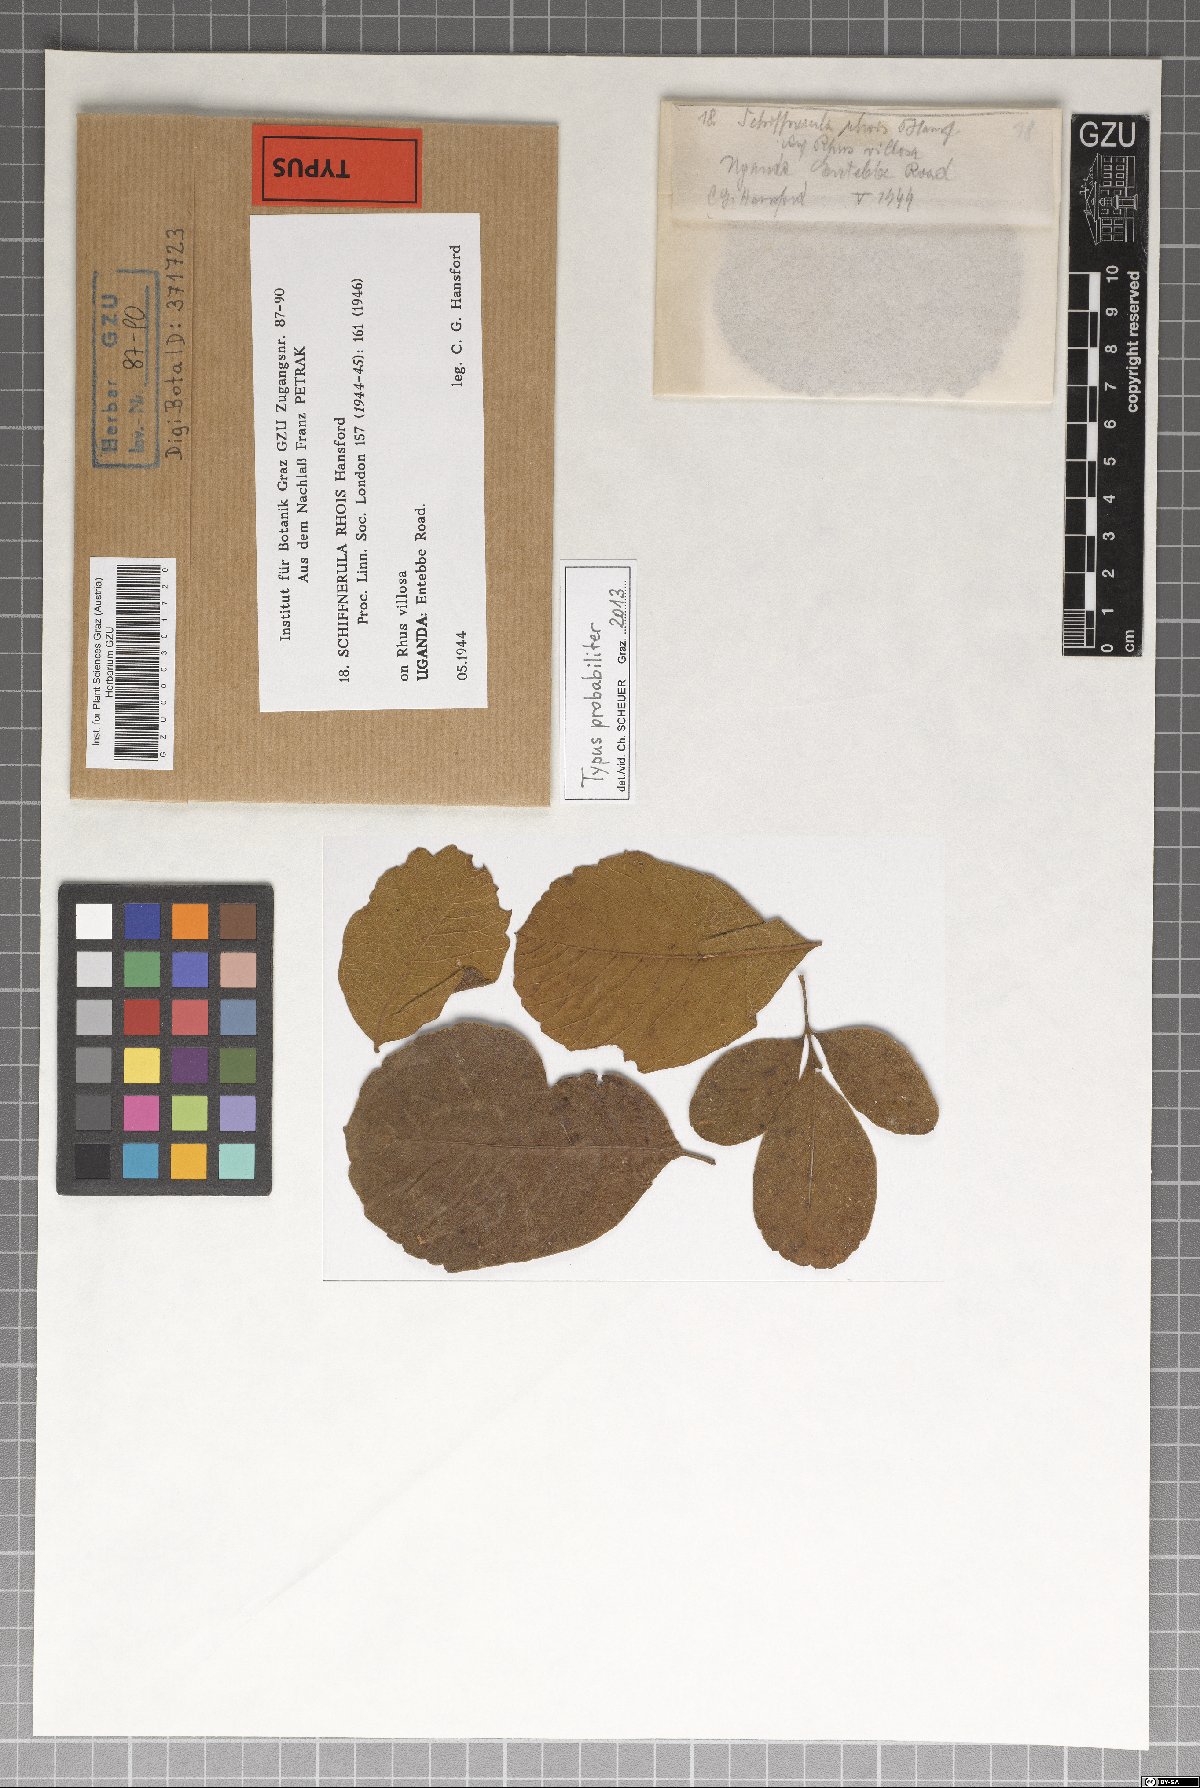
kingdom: Fungi
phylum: Ascomycota
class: Dothideomycetes
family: Englerulaceae
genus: Schiffnerula
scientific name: Schiffnerula rhois
